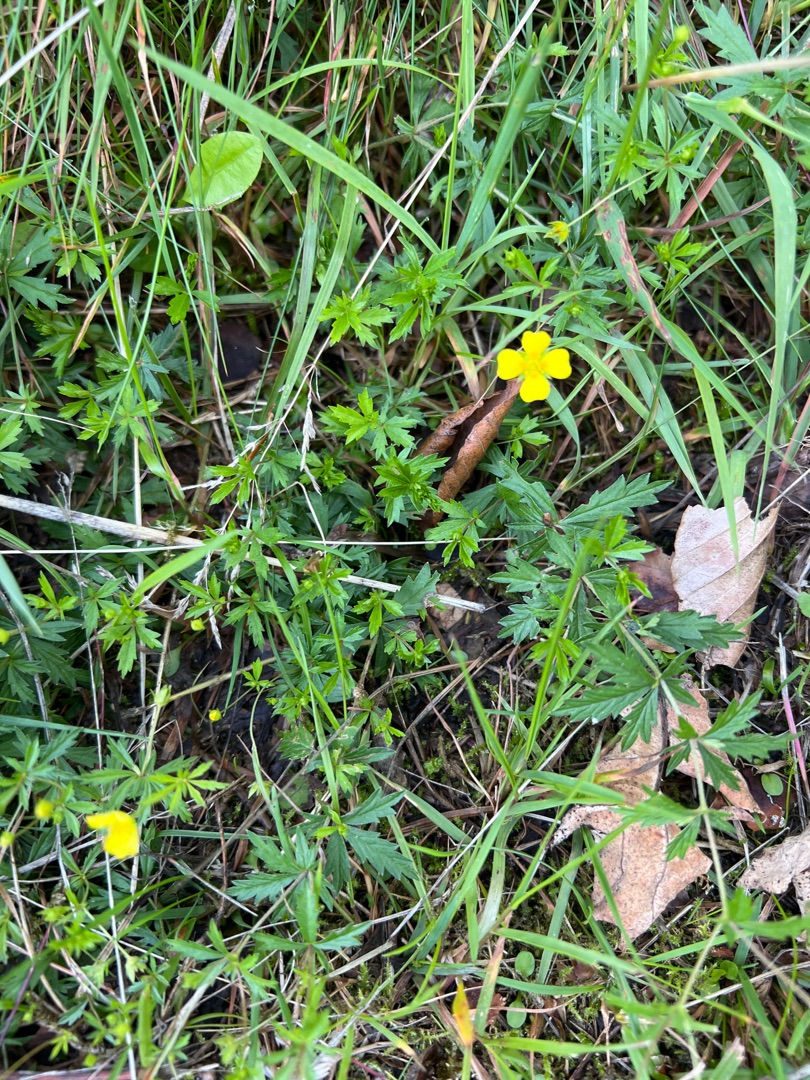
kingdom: Plantae
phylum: Tracheophyta
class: Magnoliopsida
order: Rosales
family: Rosaceae
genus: Potentilla
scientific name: Potentilla erecta
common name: Tormentil
